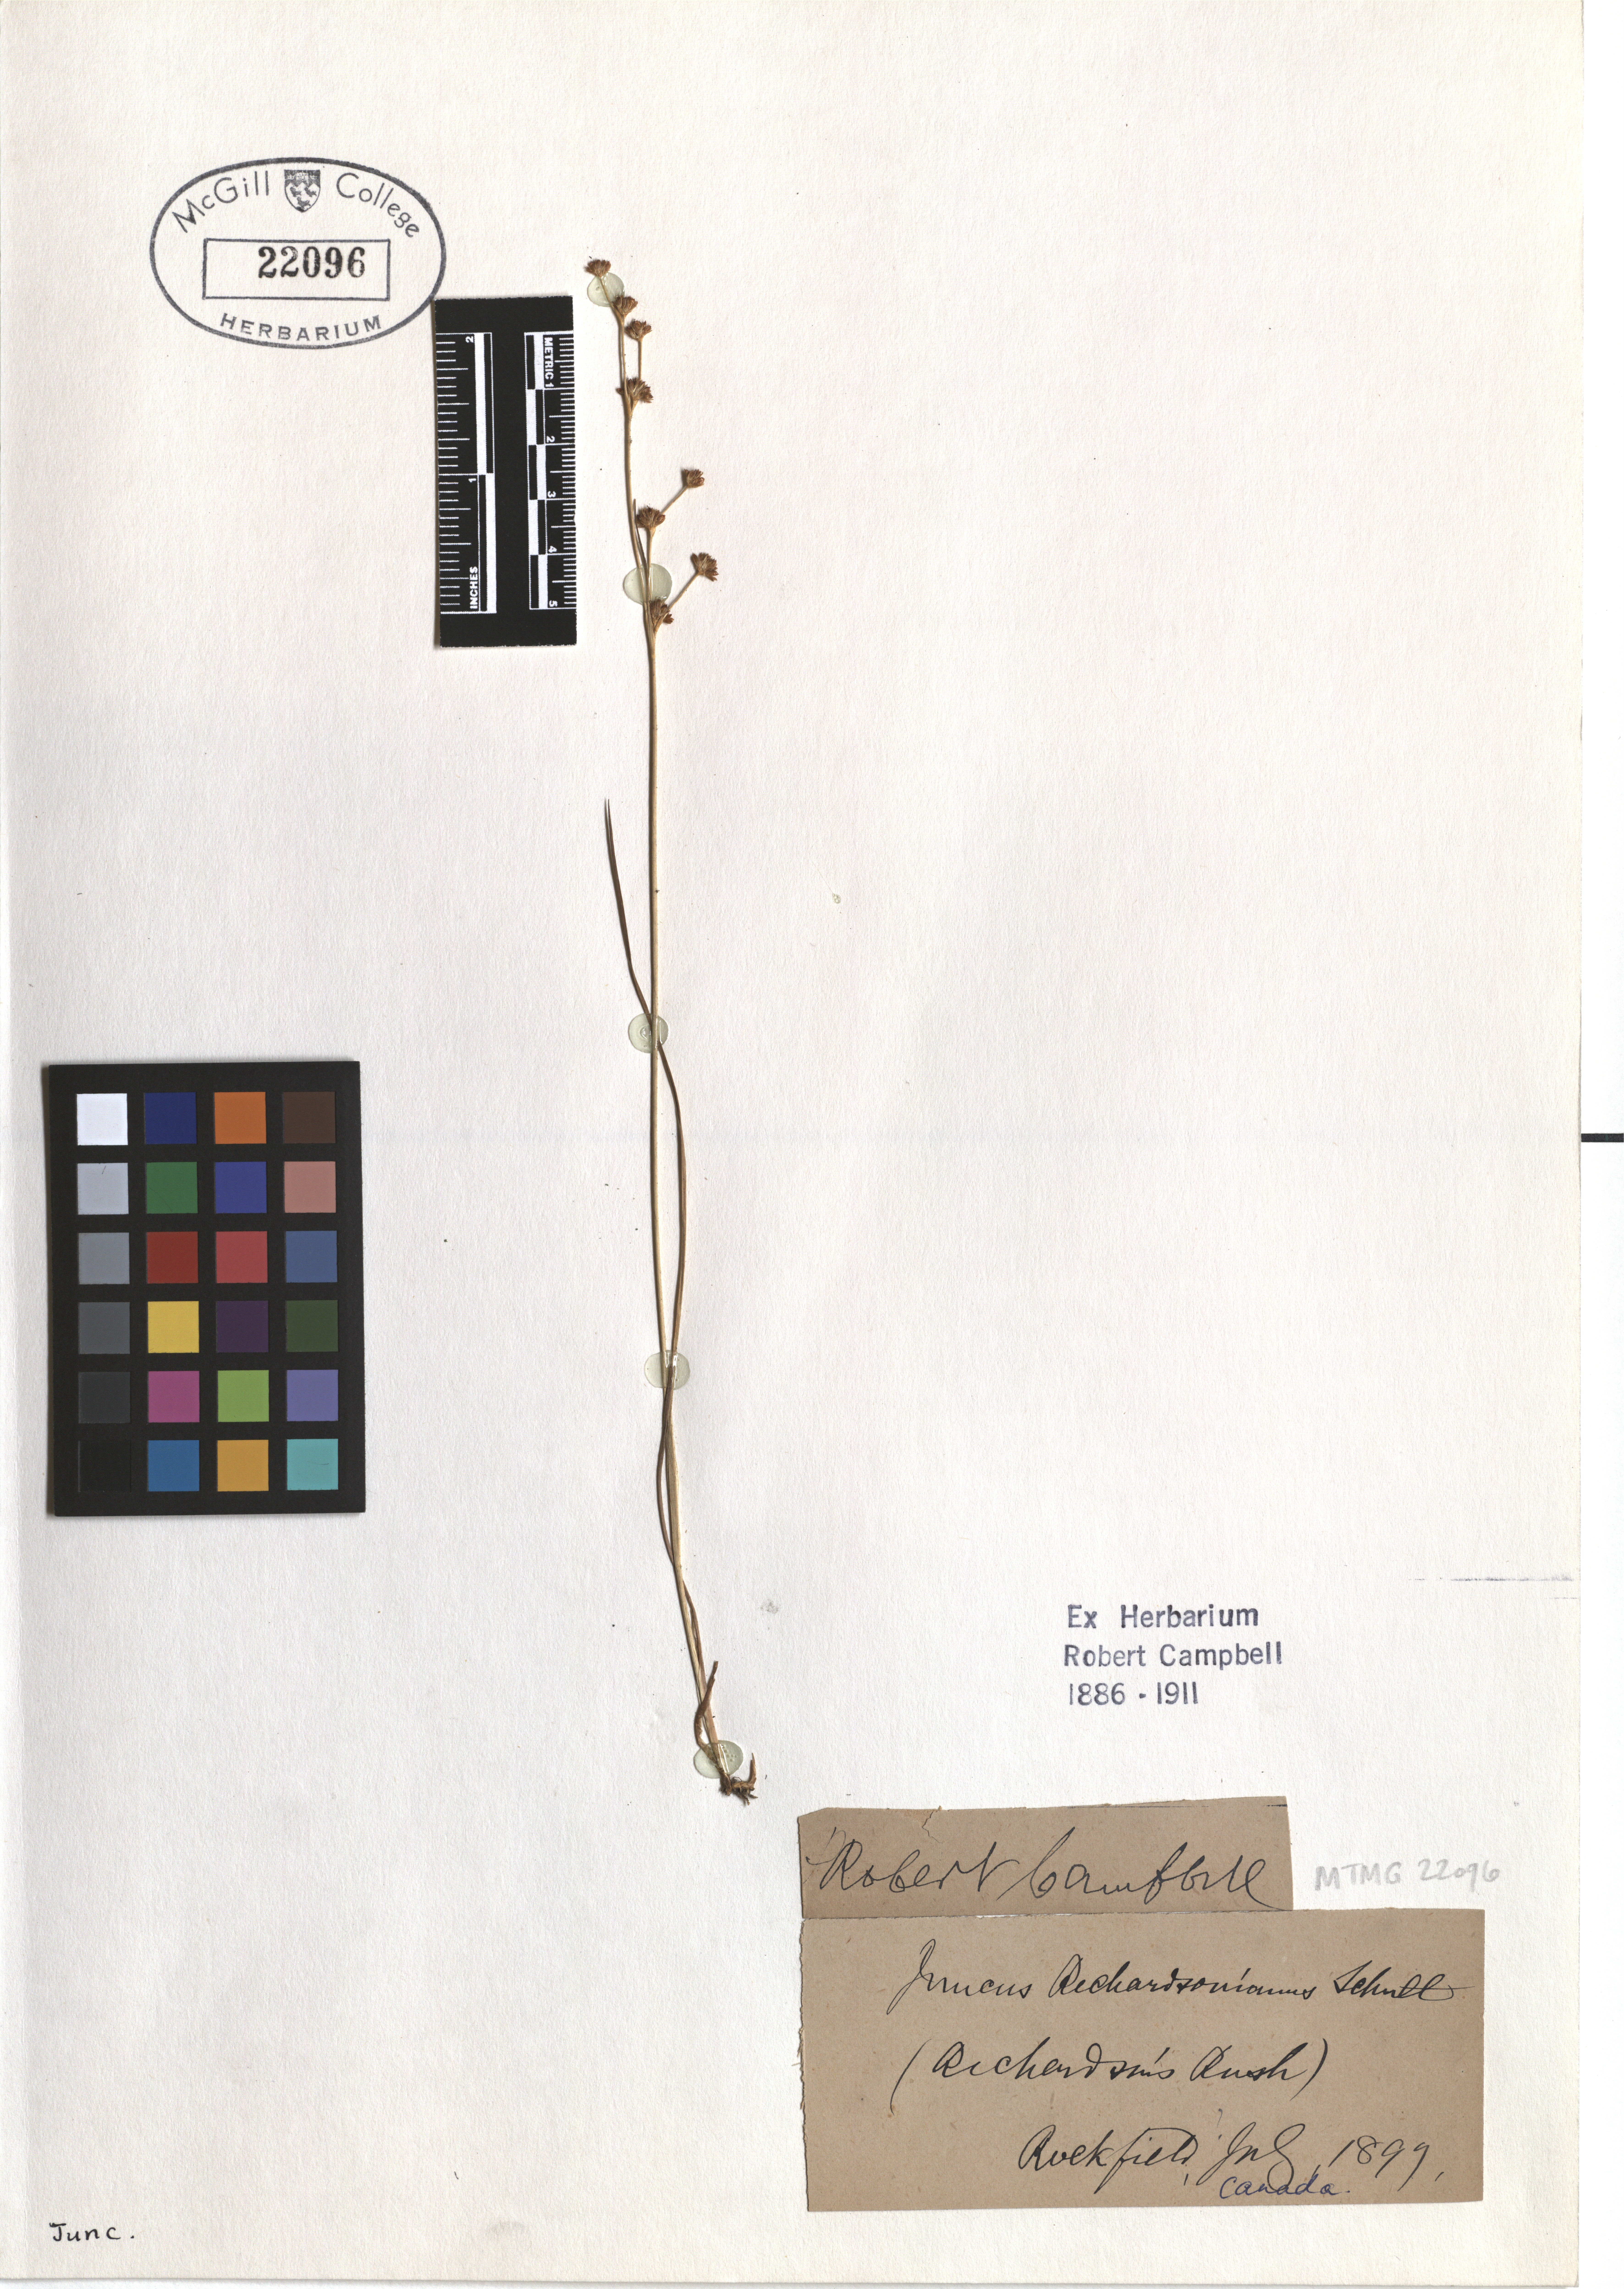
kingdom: Plantae
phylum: Tracheophyta
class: Liliopsida
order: Poales
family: Juncaceae
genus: Juncus
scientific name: Juncus alpinoarticulatus
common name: Alpine rush
